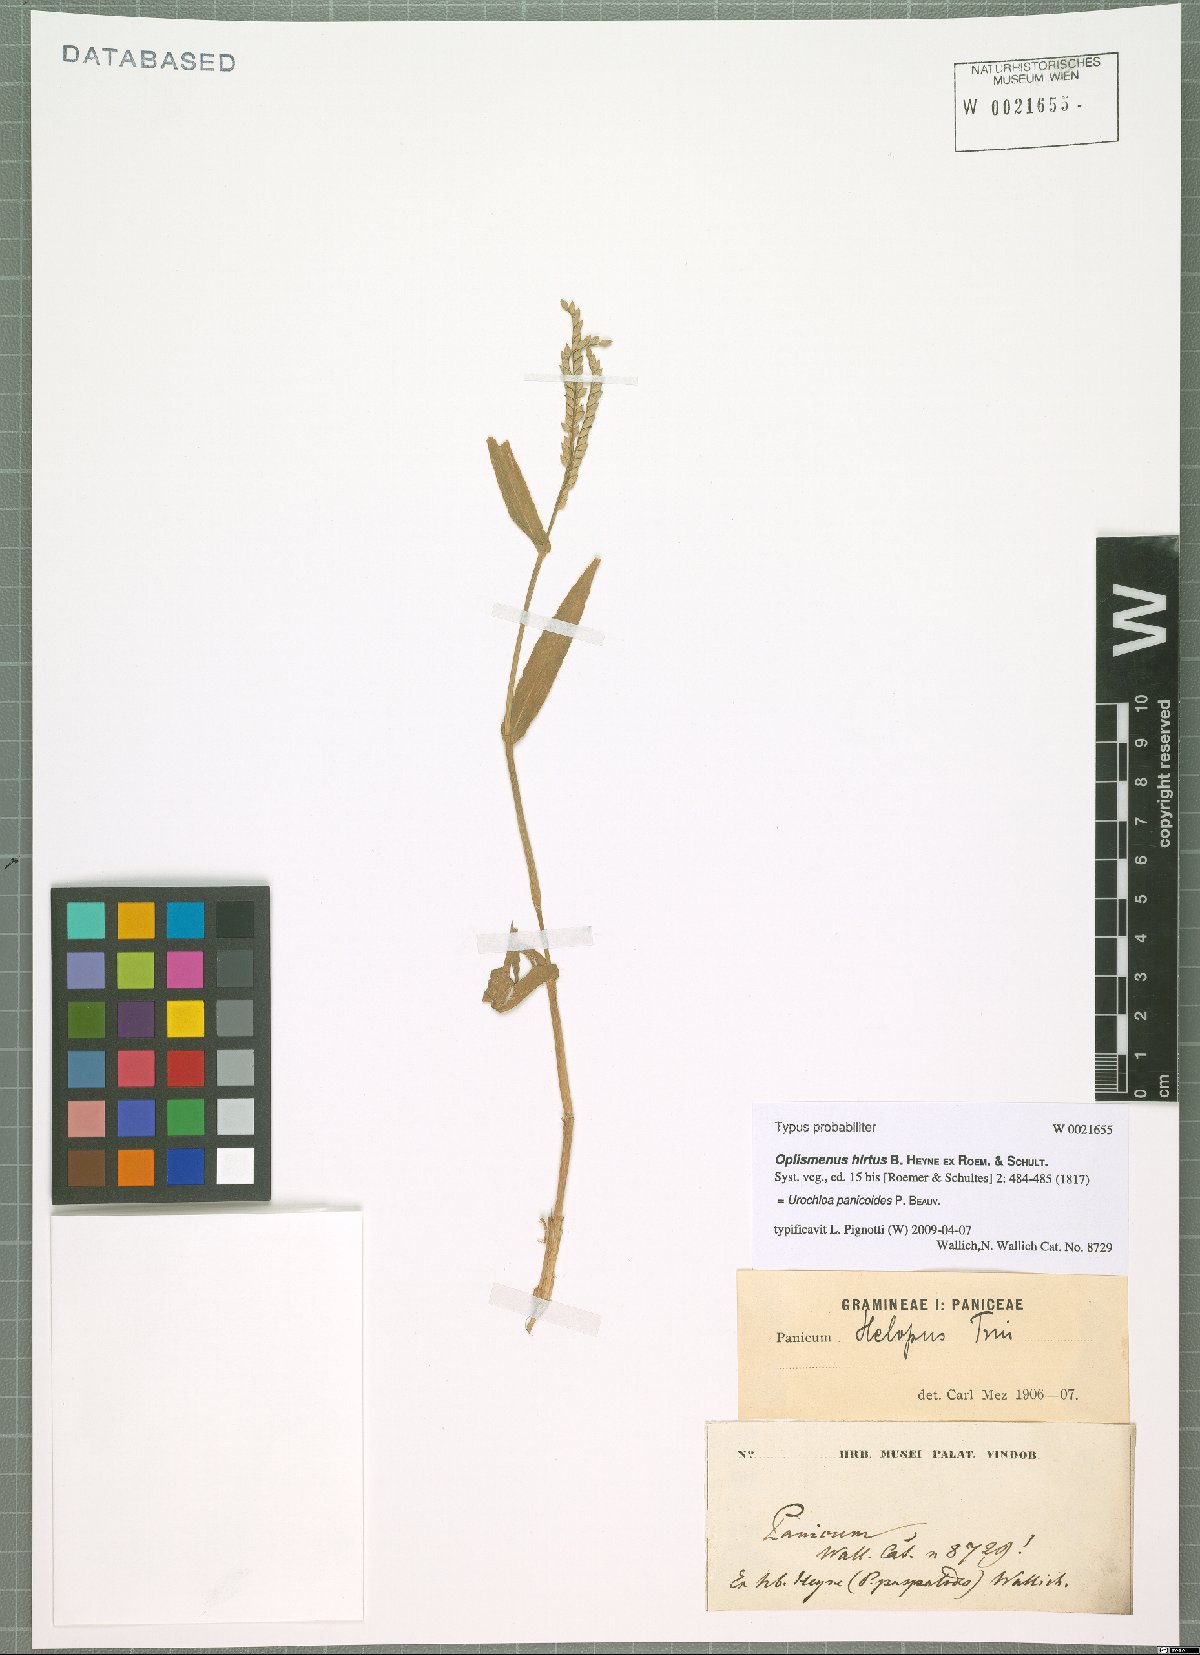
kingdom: Plantae
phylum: Tracheophyta
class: Liliopsida
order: Poales
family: Poaceae
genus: Urochloa
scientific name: Urochloa panicoides
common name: Sharp-flowered signal-grass
